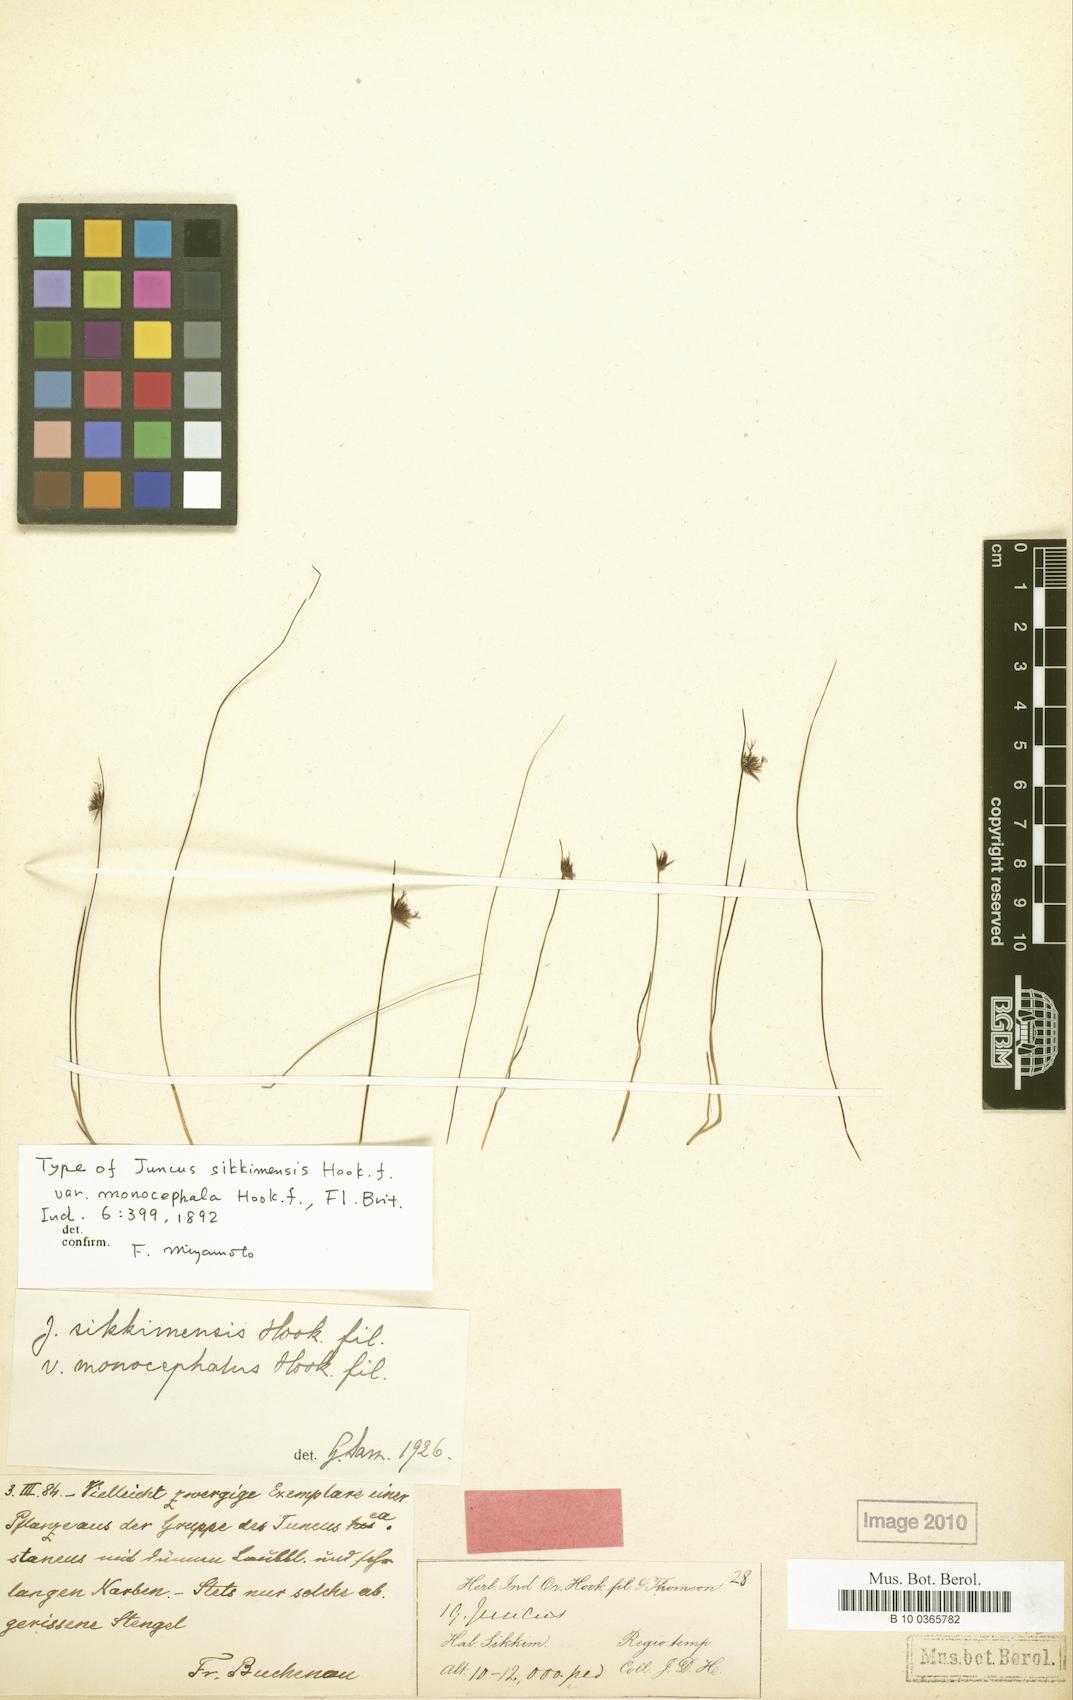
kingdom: Plantae
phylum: Tracheophyta
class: Liliopsida
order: Poales
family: Juncaceae
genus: Juncus
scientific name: Juncus rohtangensis
